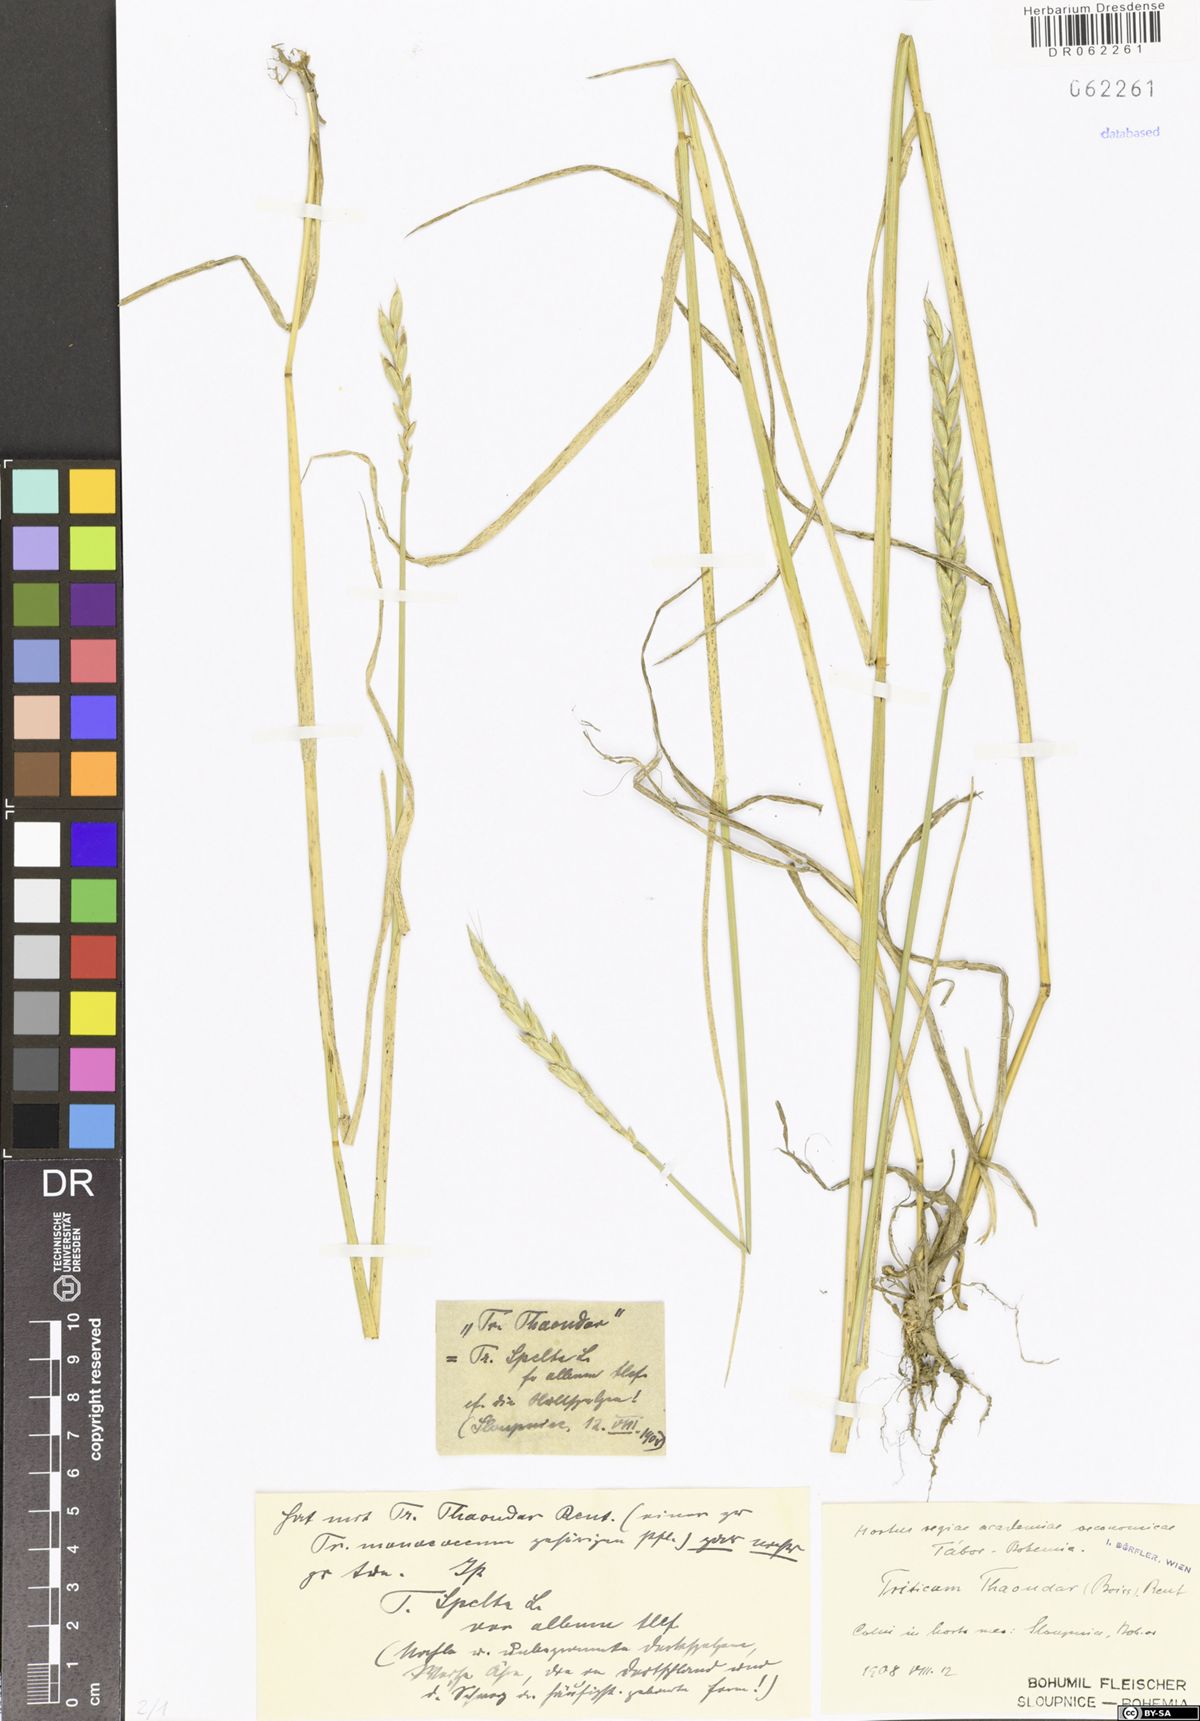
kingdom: Plantae
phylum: Tracheophyta
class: Liliopsida
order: Poales
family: Poaceae
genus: Triticum
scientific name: Triticum aestivum
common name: Common wheat
